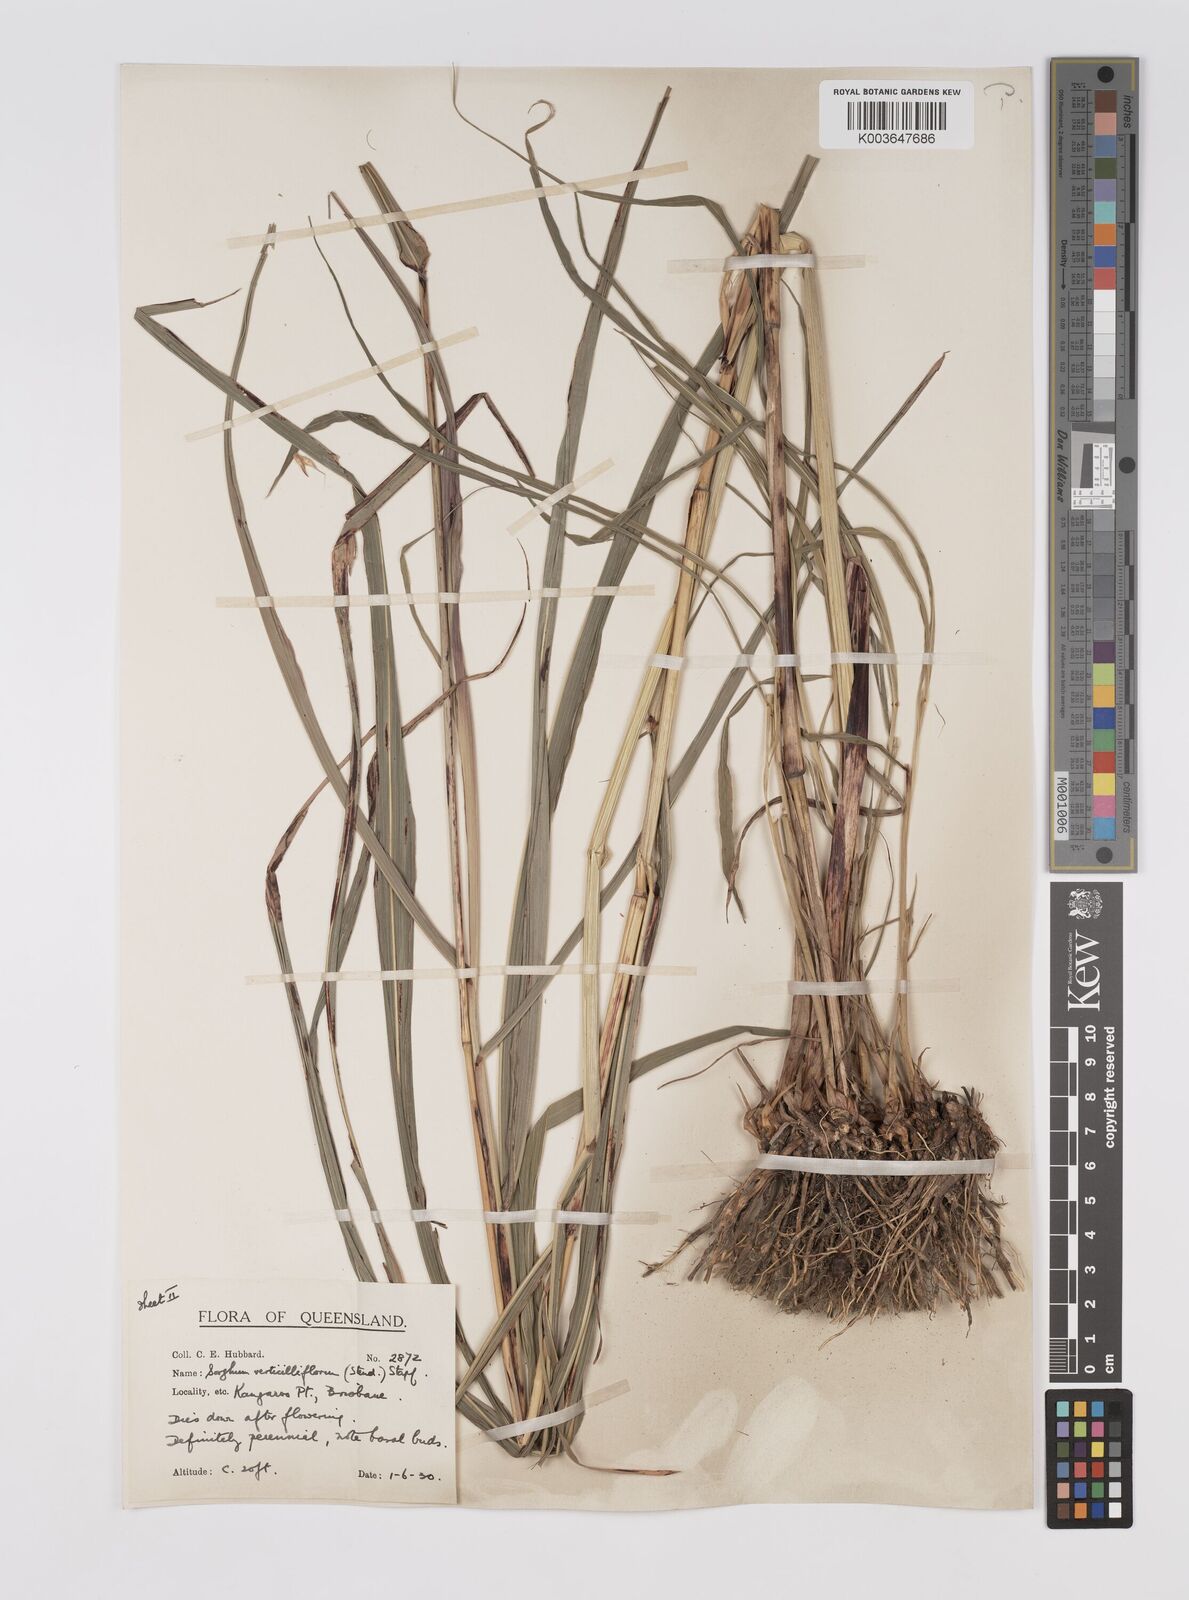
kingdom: Plantae
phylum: Tracheophyta
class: Liliopsida
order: Poales
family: Poaceae
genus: Sorghum
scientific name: Sorghum arundinaceum
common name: Sorghum
